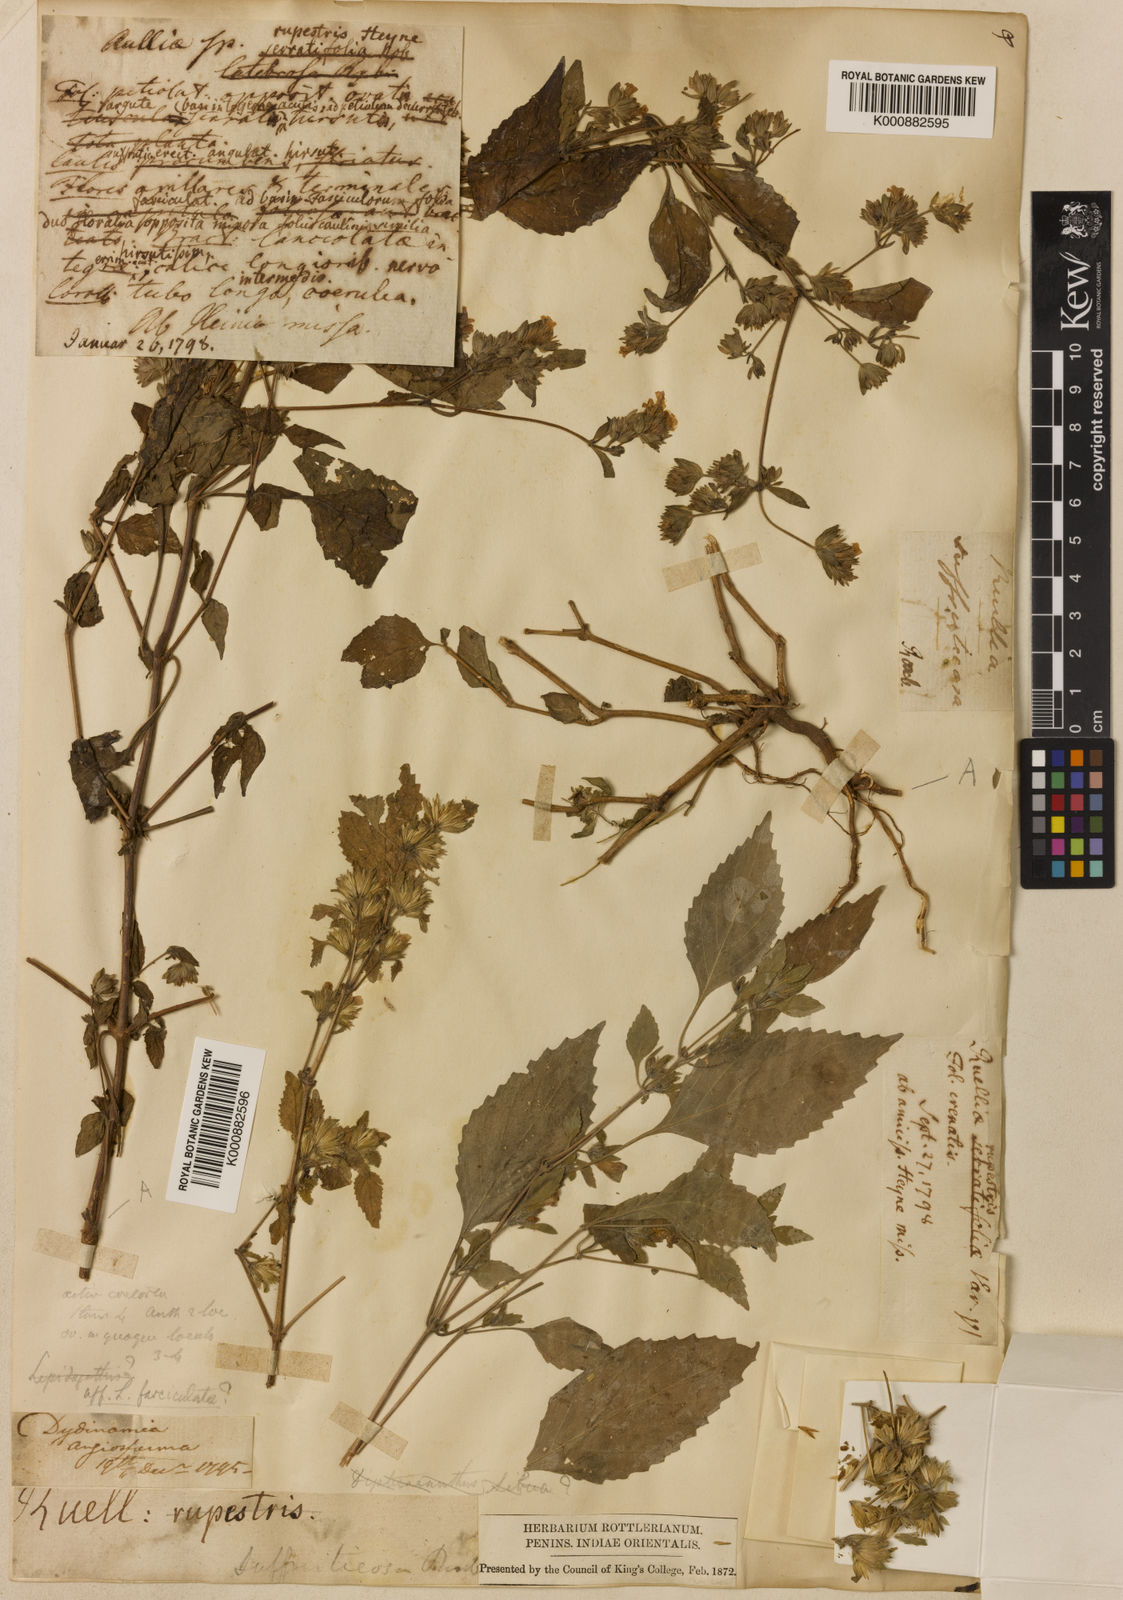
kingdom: Plantae
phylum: Tracheophyta
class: Magnoliopsida
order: Lamiales
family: Acanthaceae
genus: Strobilanthes
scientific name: Strobilanthes pavala
